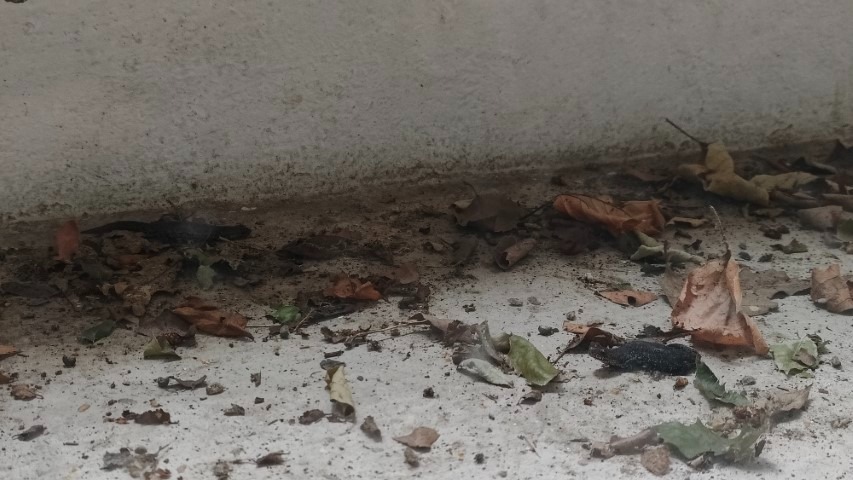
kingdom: Animalia
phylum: Chordata
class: Amphibia
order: Caudata
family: Salamandridae
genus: Triturus
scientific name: Triturus cristatus
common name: Stor vandsalamander
